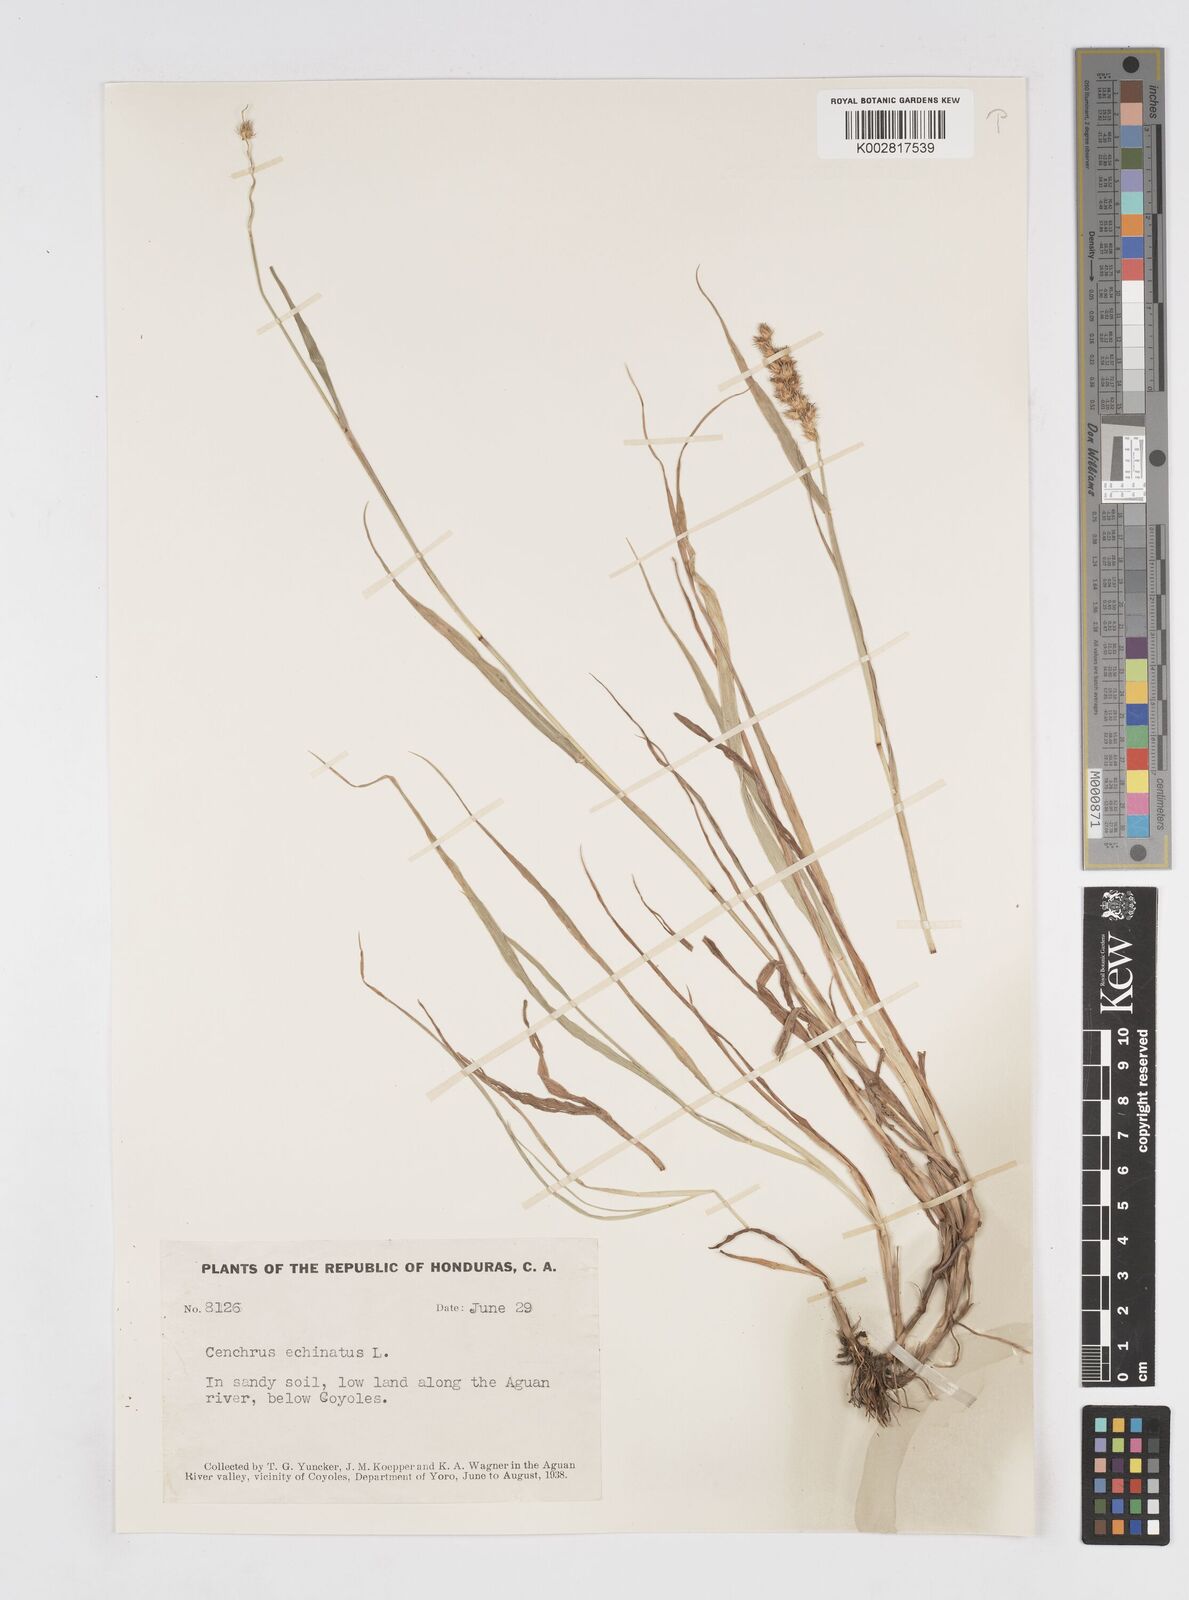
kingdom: Plantae
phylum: Tracheophyta
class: Liliopsida
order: Poales
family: Poaceae
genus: Cenchrus
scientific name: Cenchrus
